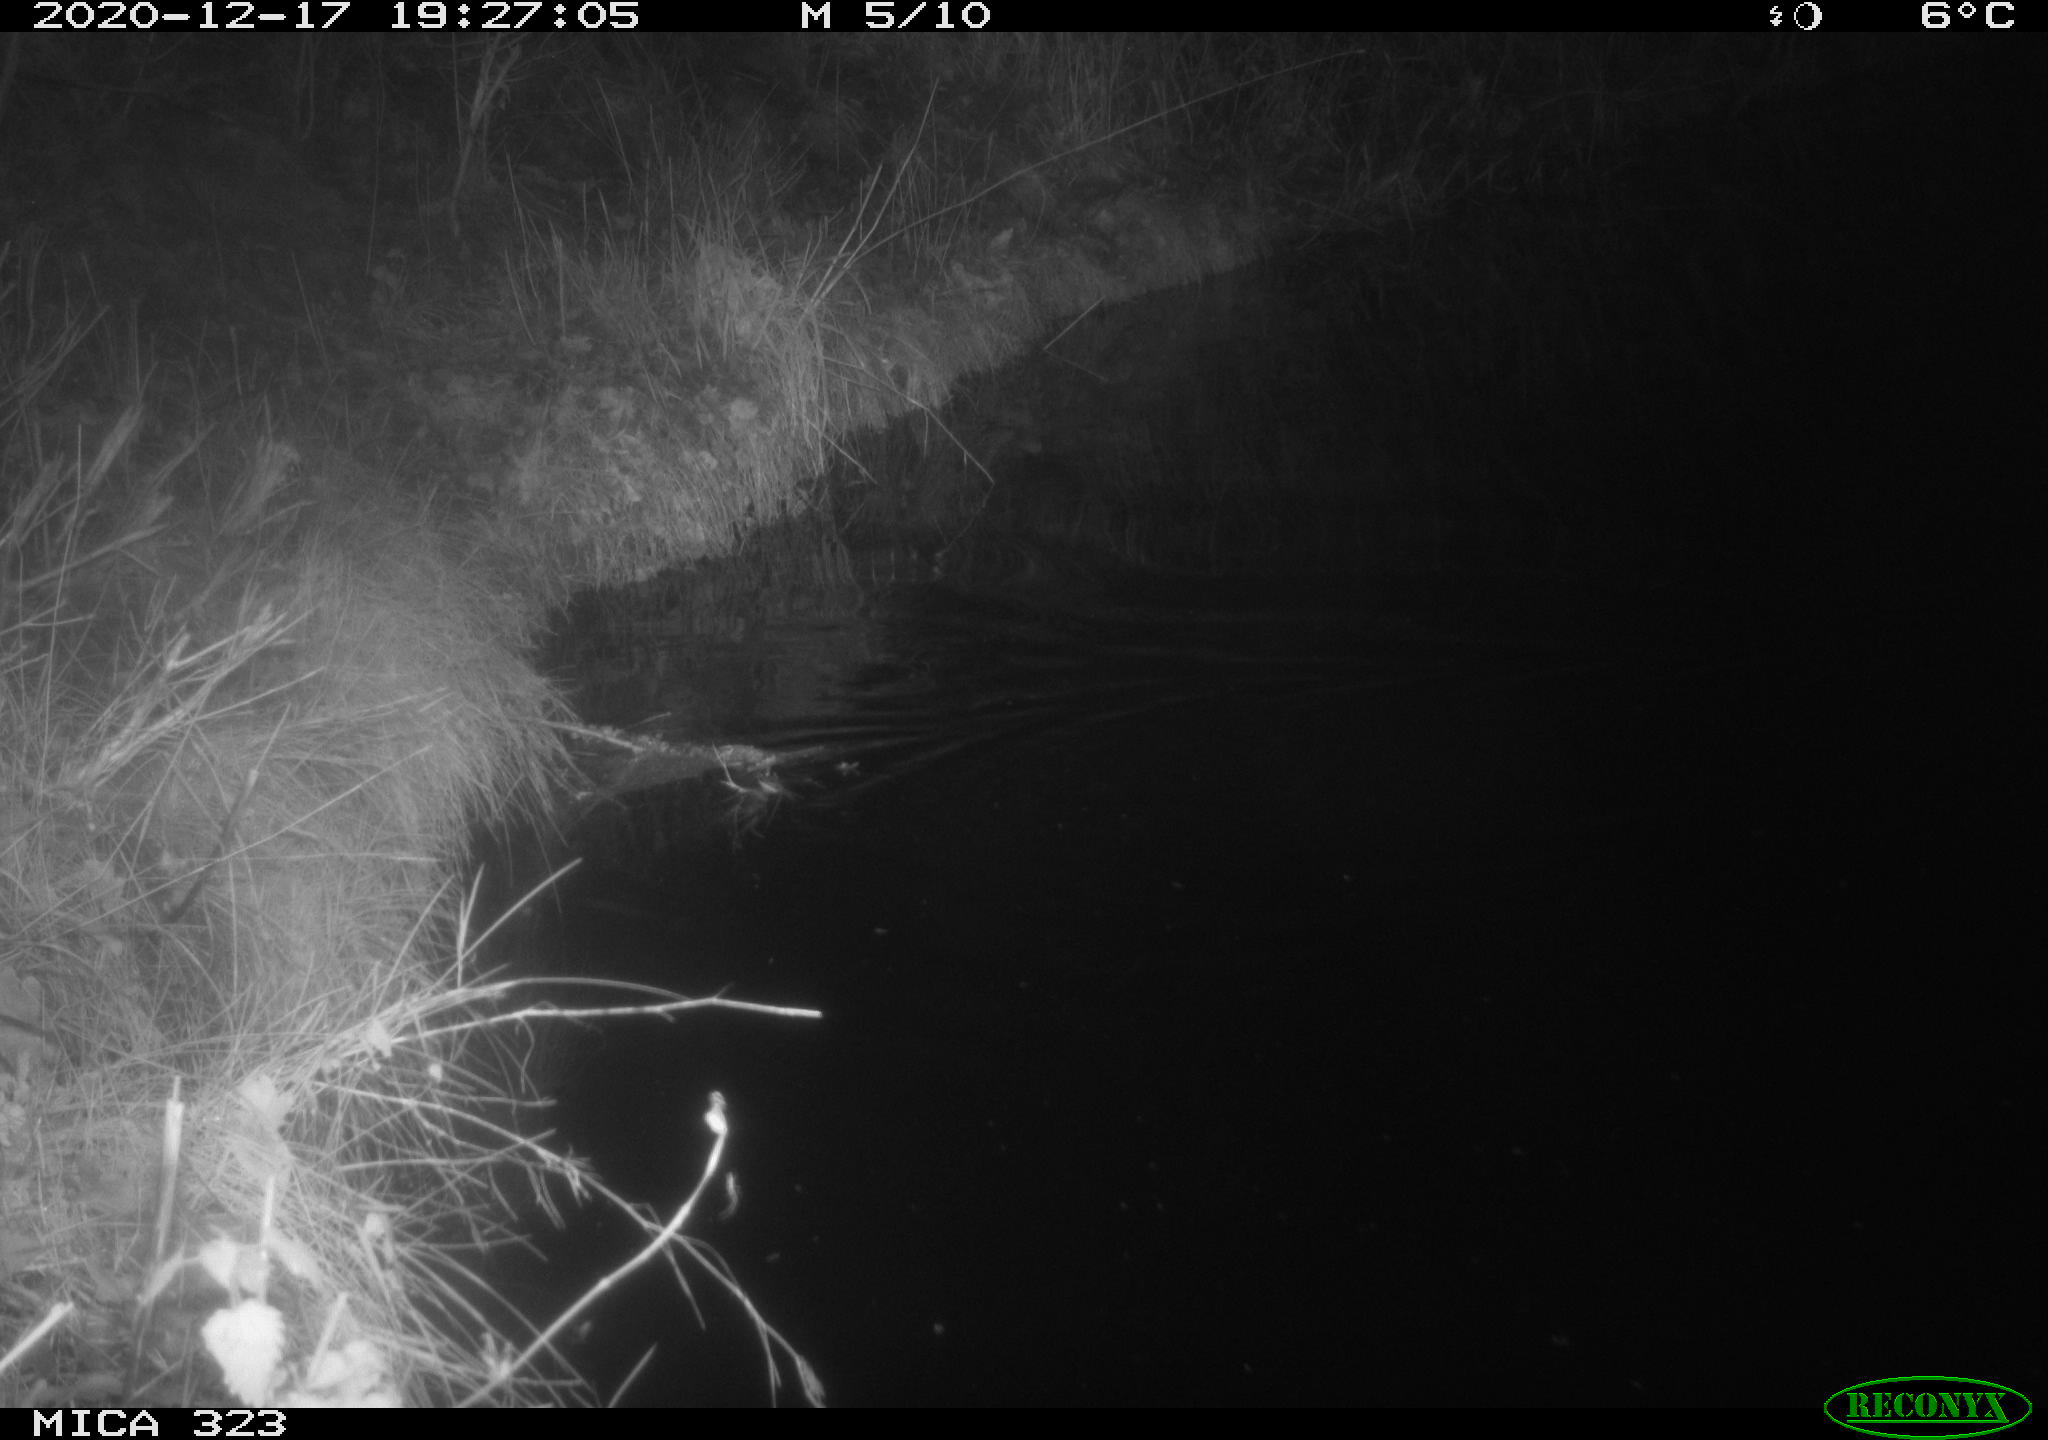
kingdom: Animalia
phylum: Chordata
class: Mammalia
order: Rodentia
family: Muridae
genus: Rattus
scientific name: Rattus norvegicus
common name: Brown rat
